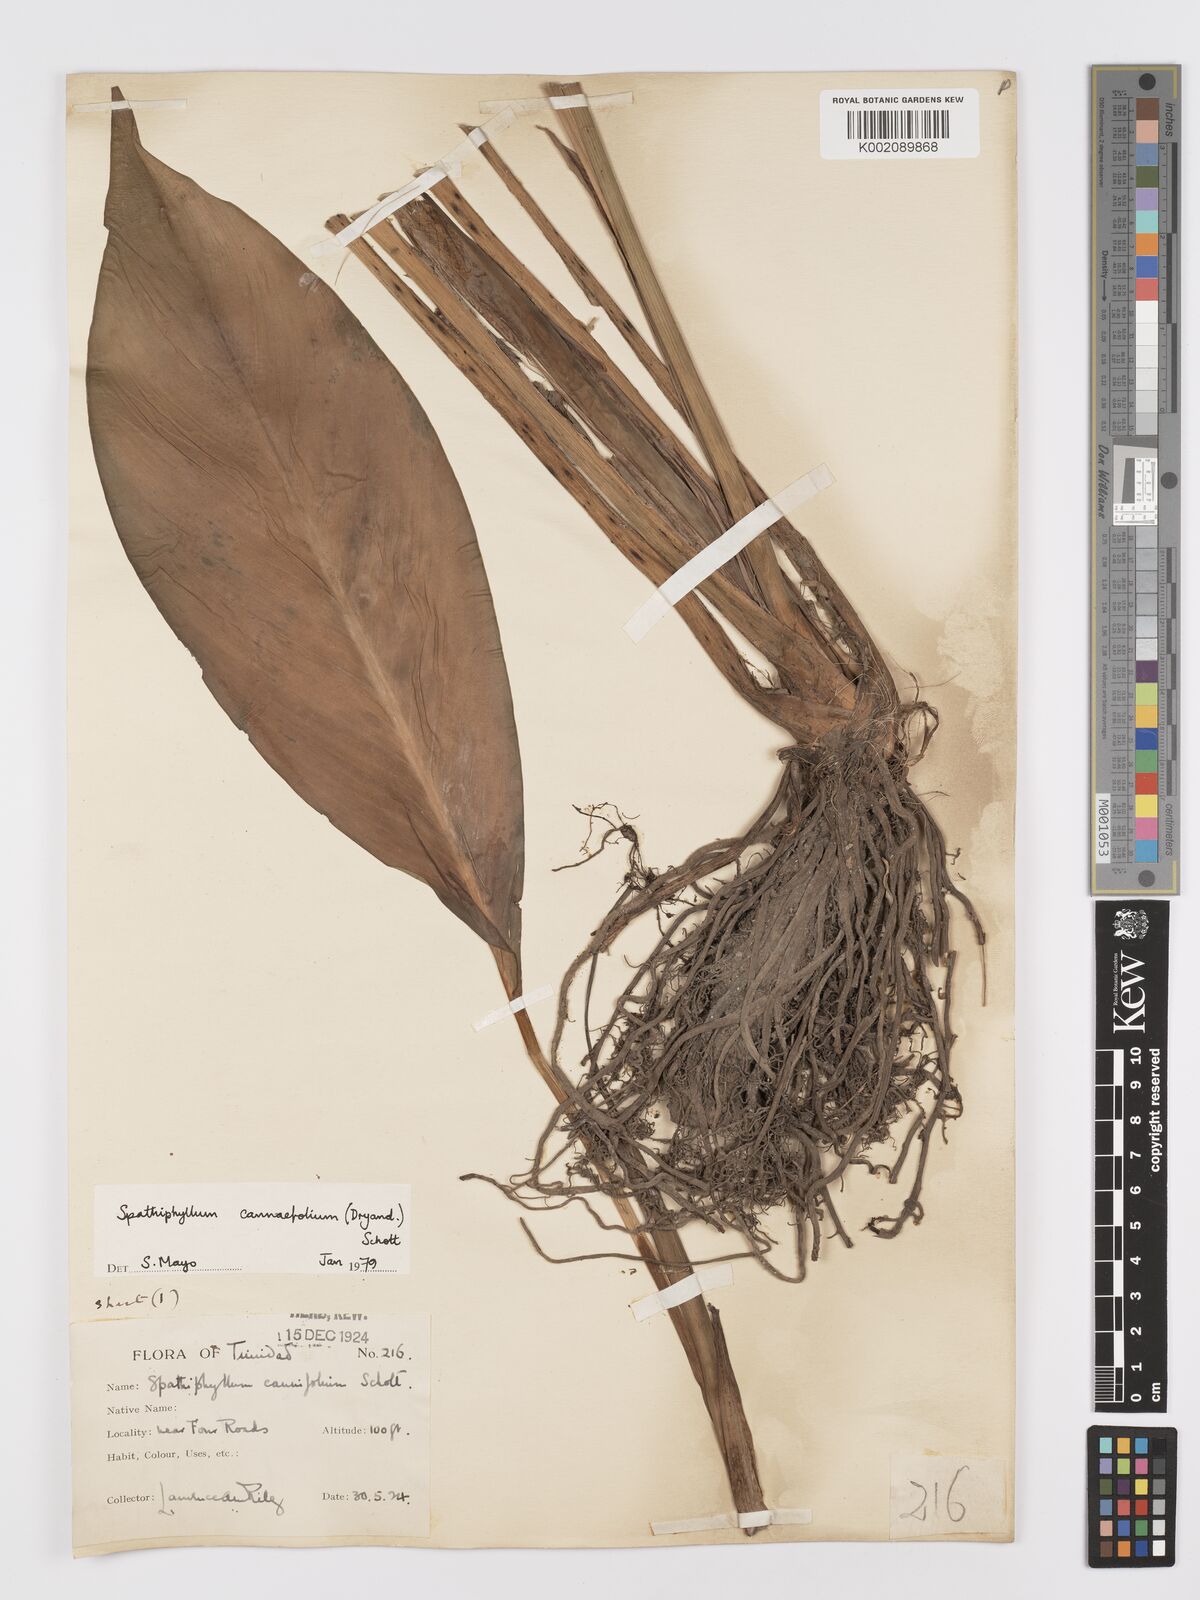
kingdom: Plantae
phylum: Tracheophyta
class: Liliopsida
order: Alismatales
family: Araceae
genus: Spathiphyllum
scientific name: Spathiphyllum cannifolium
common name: Spatheflower
